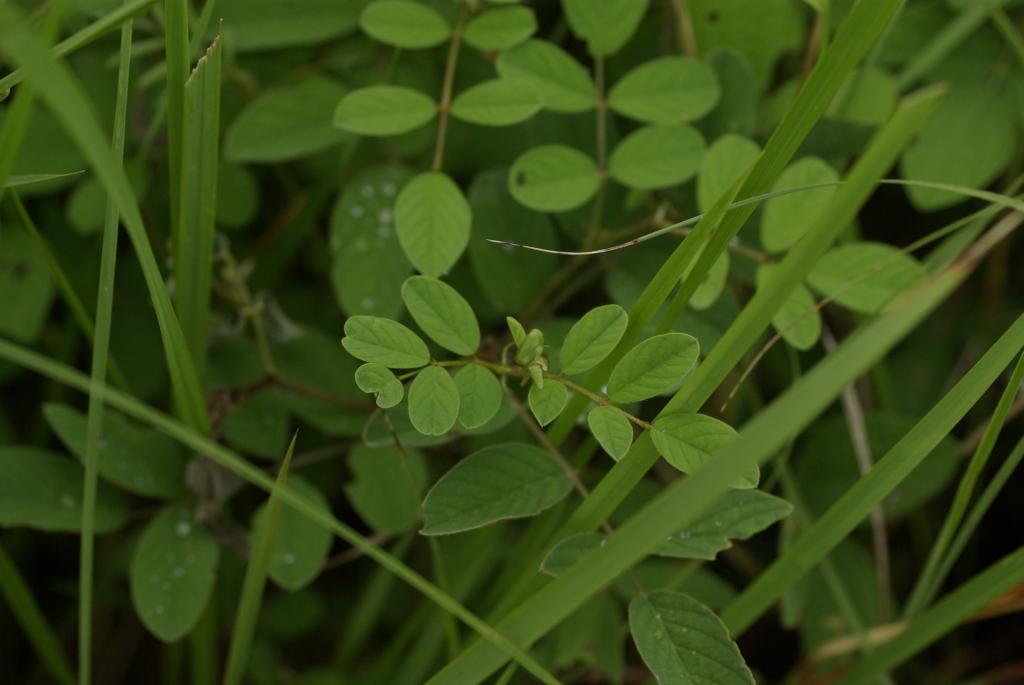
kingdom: Plantae
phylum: Tracheophyta
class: Magnoliopsida
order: Fabales
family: Fabaceae
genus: Indigofera
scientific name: Indigofera hirsuta
